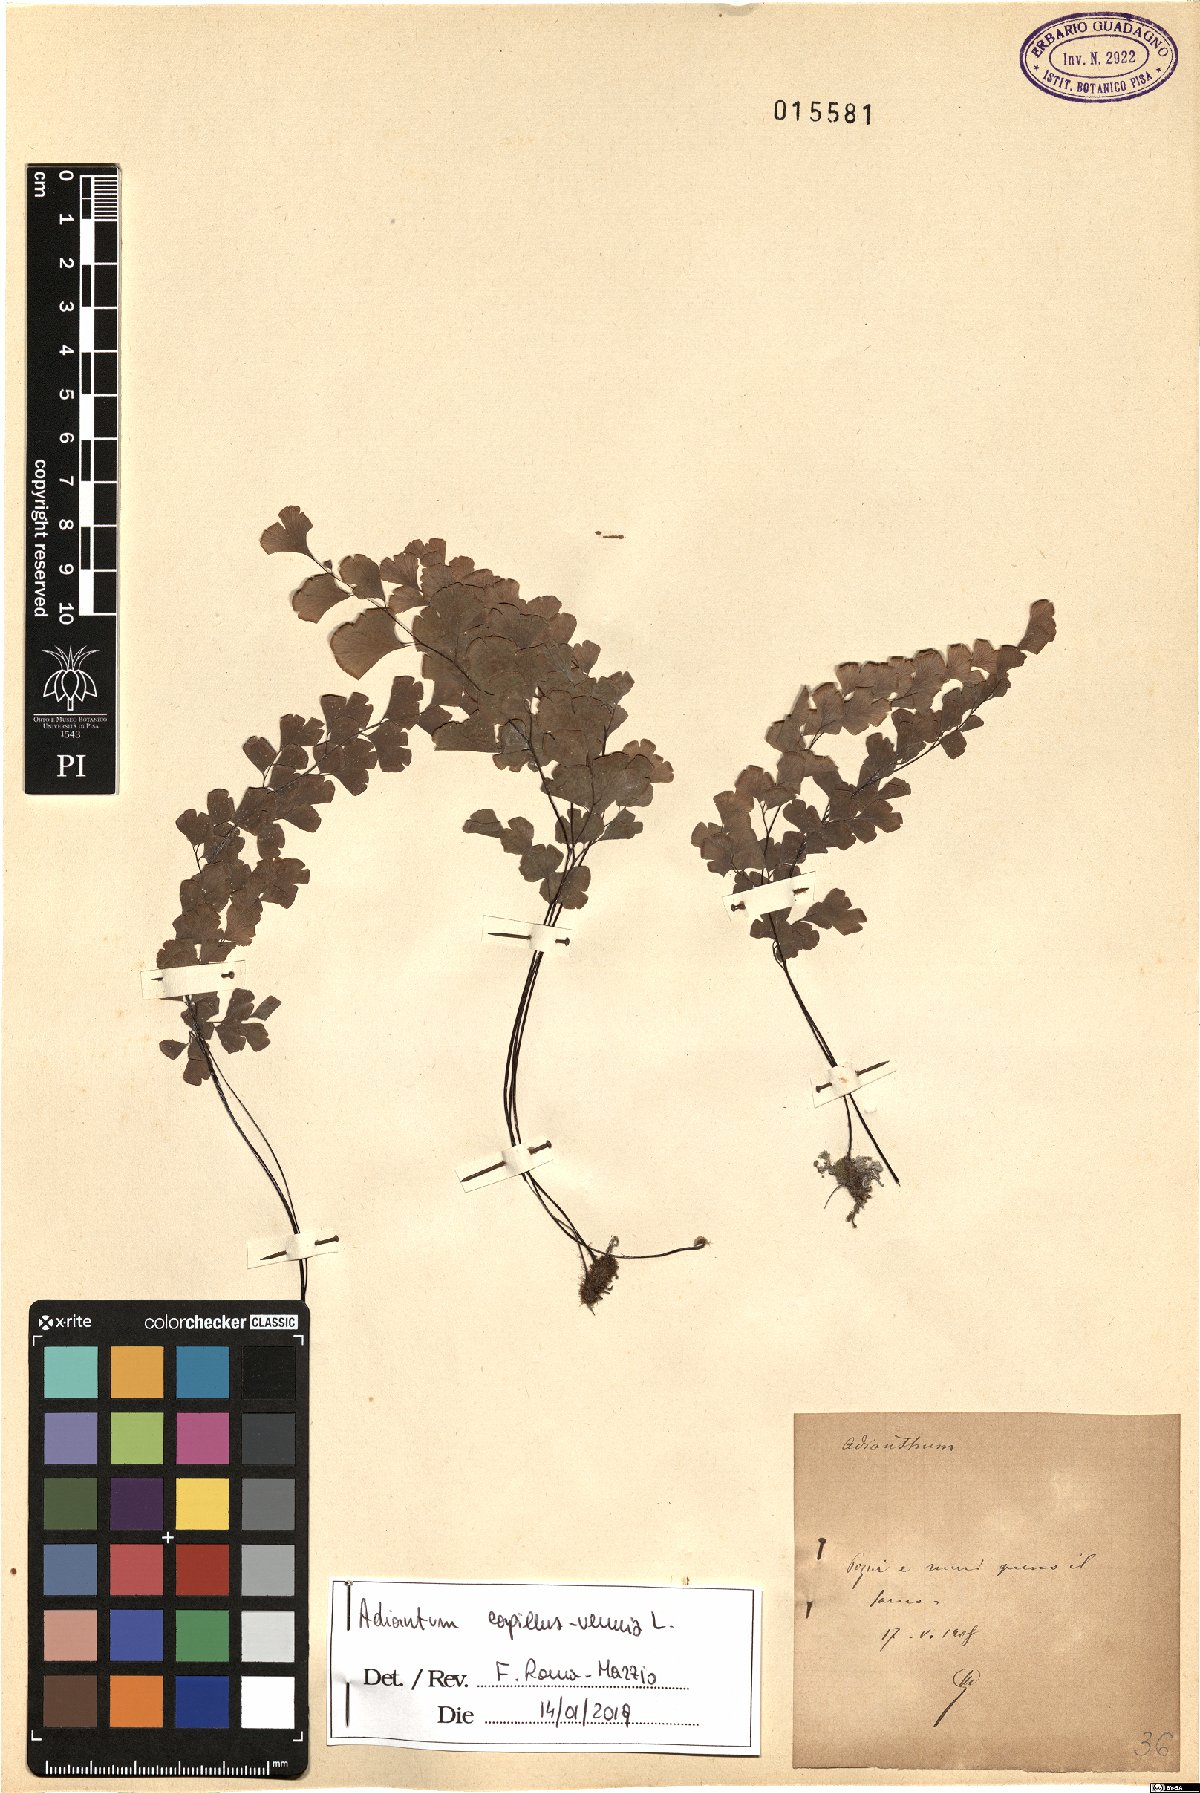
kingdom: Plantae
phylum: Tracheophyta
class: Polypodiopsida
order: Polypodiales
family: Pteridaceae
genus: Adiantum
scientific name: Adiantum capillus-veneris
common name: Maidenhair fern
